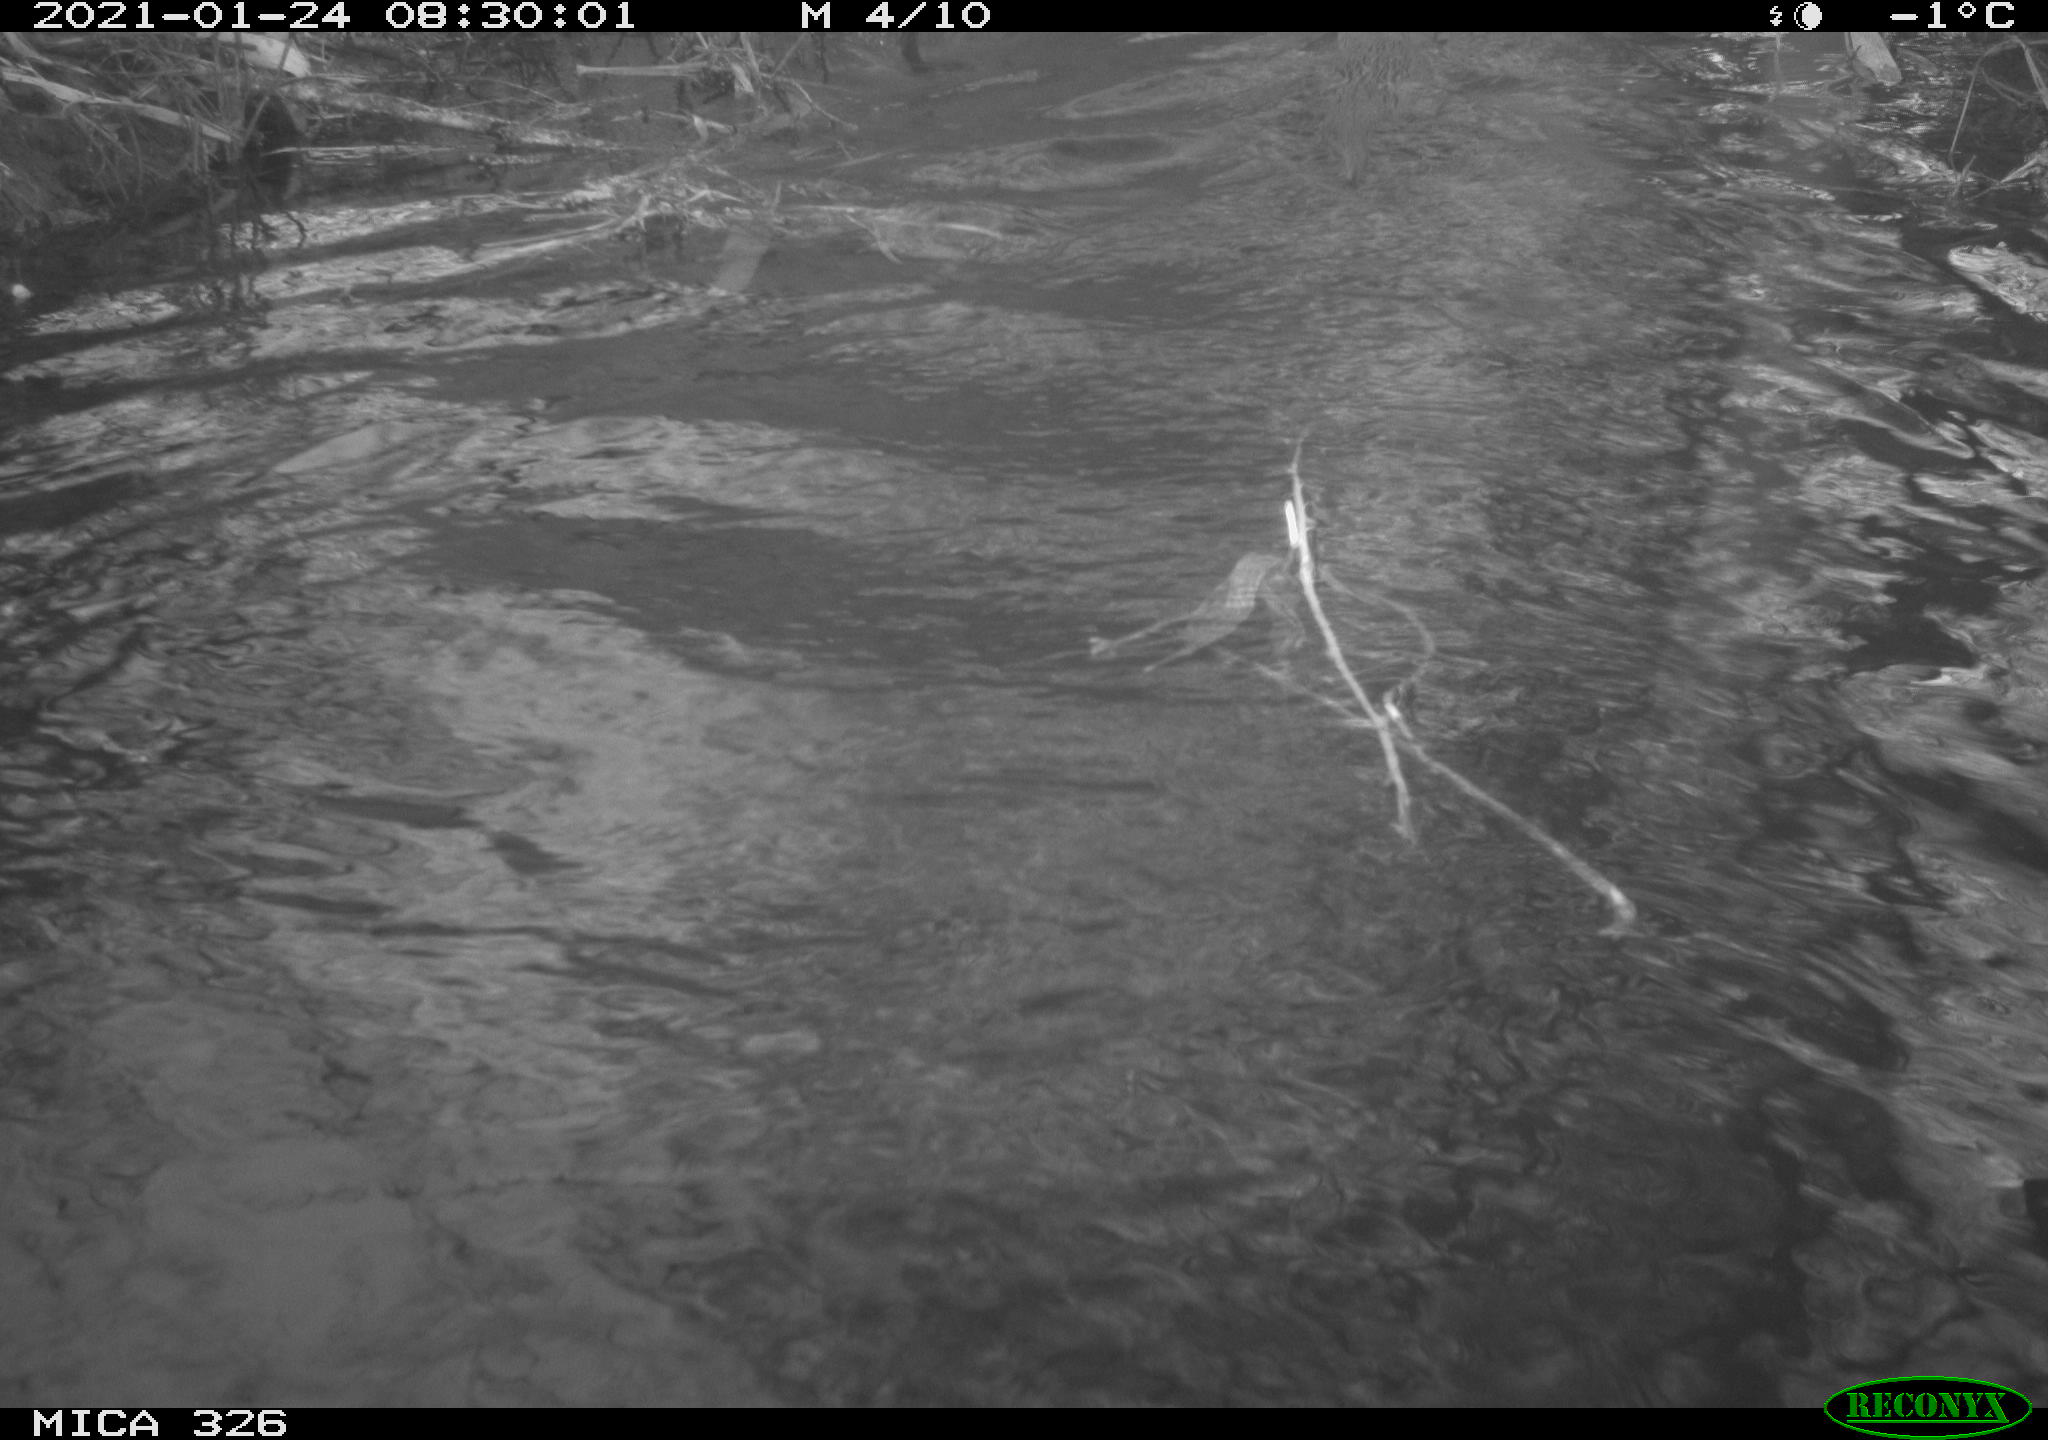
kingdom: Animalia
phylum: Chordata
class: Mammalia
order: Carnivora
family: Mustelidae
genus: Lutra
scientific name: Lutra lutra
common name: European otter
